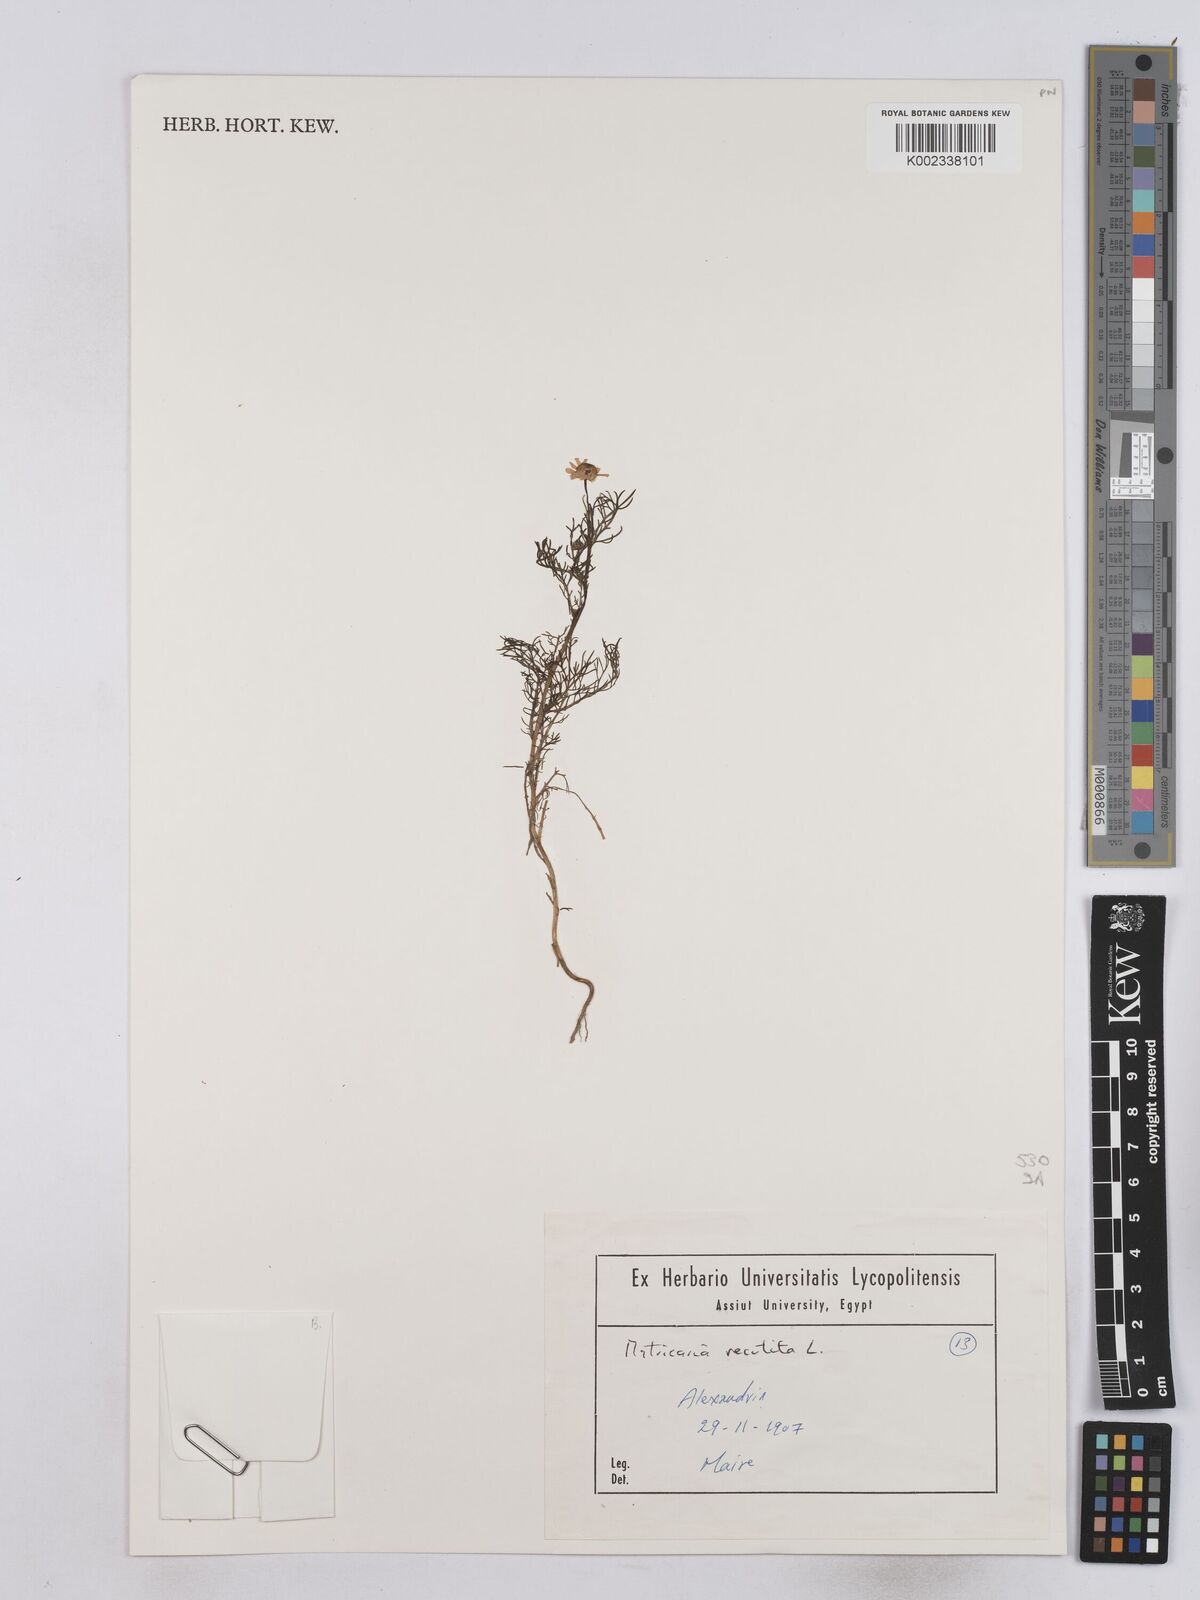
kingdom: Plantae
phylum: Tracheophyta
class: Magnoliopsida
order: Asterales
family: Asteraceae
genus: Matricaria
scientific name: Matricaria chamomilla
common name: Scented mayweed
